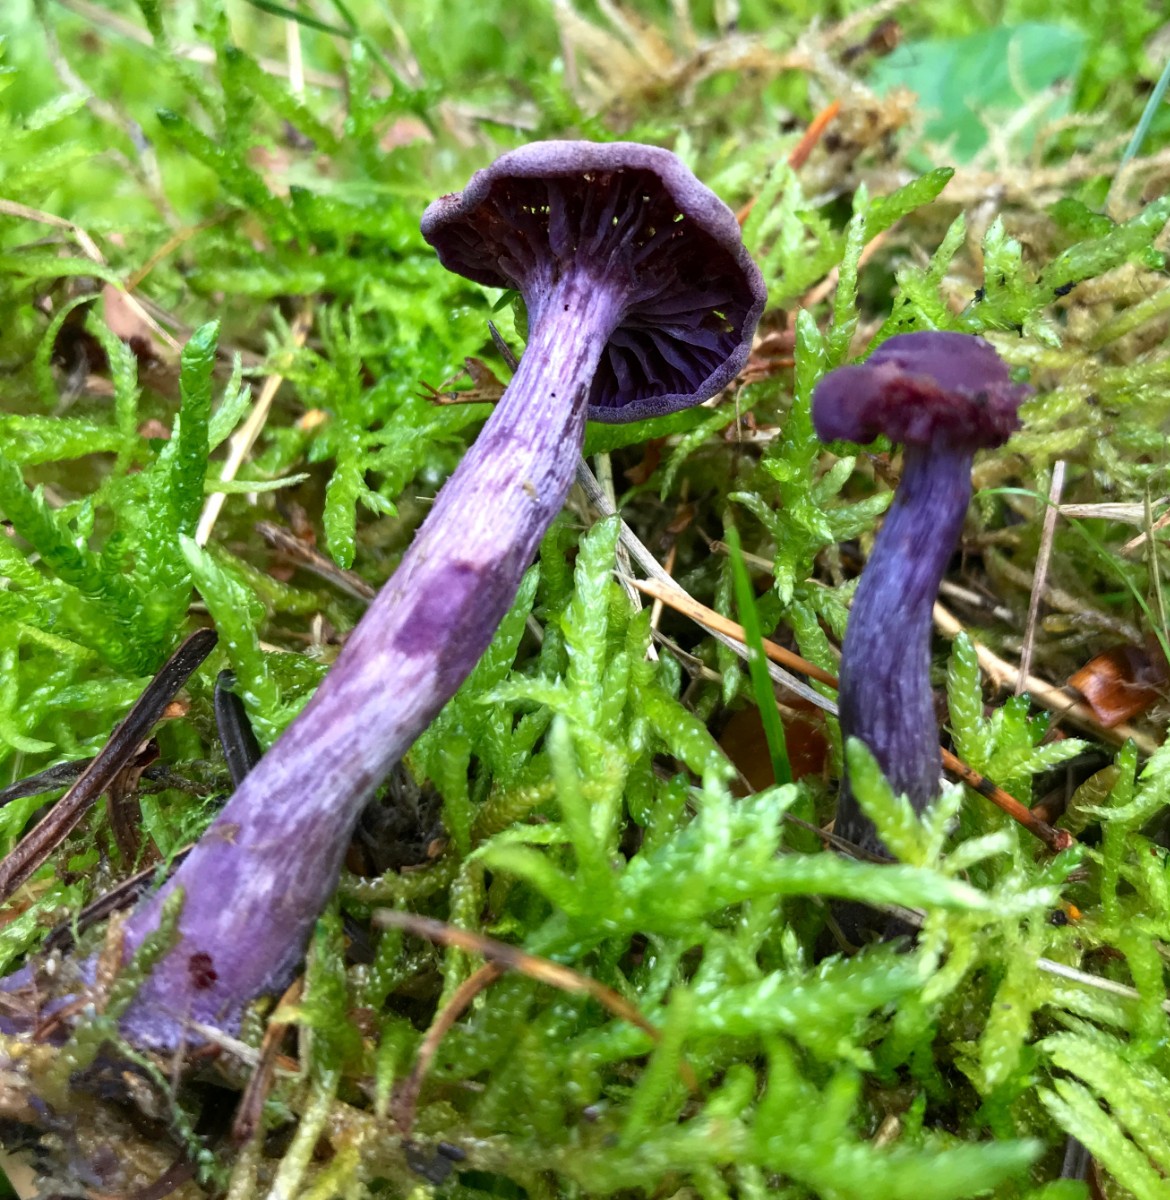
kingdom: Fungi
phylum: Basidiomycota
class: Agaricomycetes
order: Agaricales
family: Hydnangiaceae
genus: Laccaria
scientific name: Laccaria amethystina
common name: violet ametysthat
